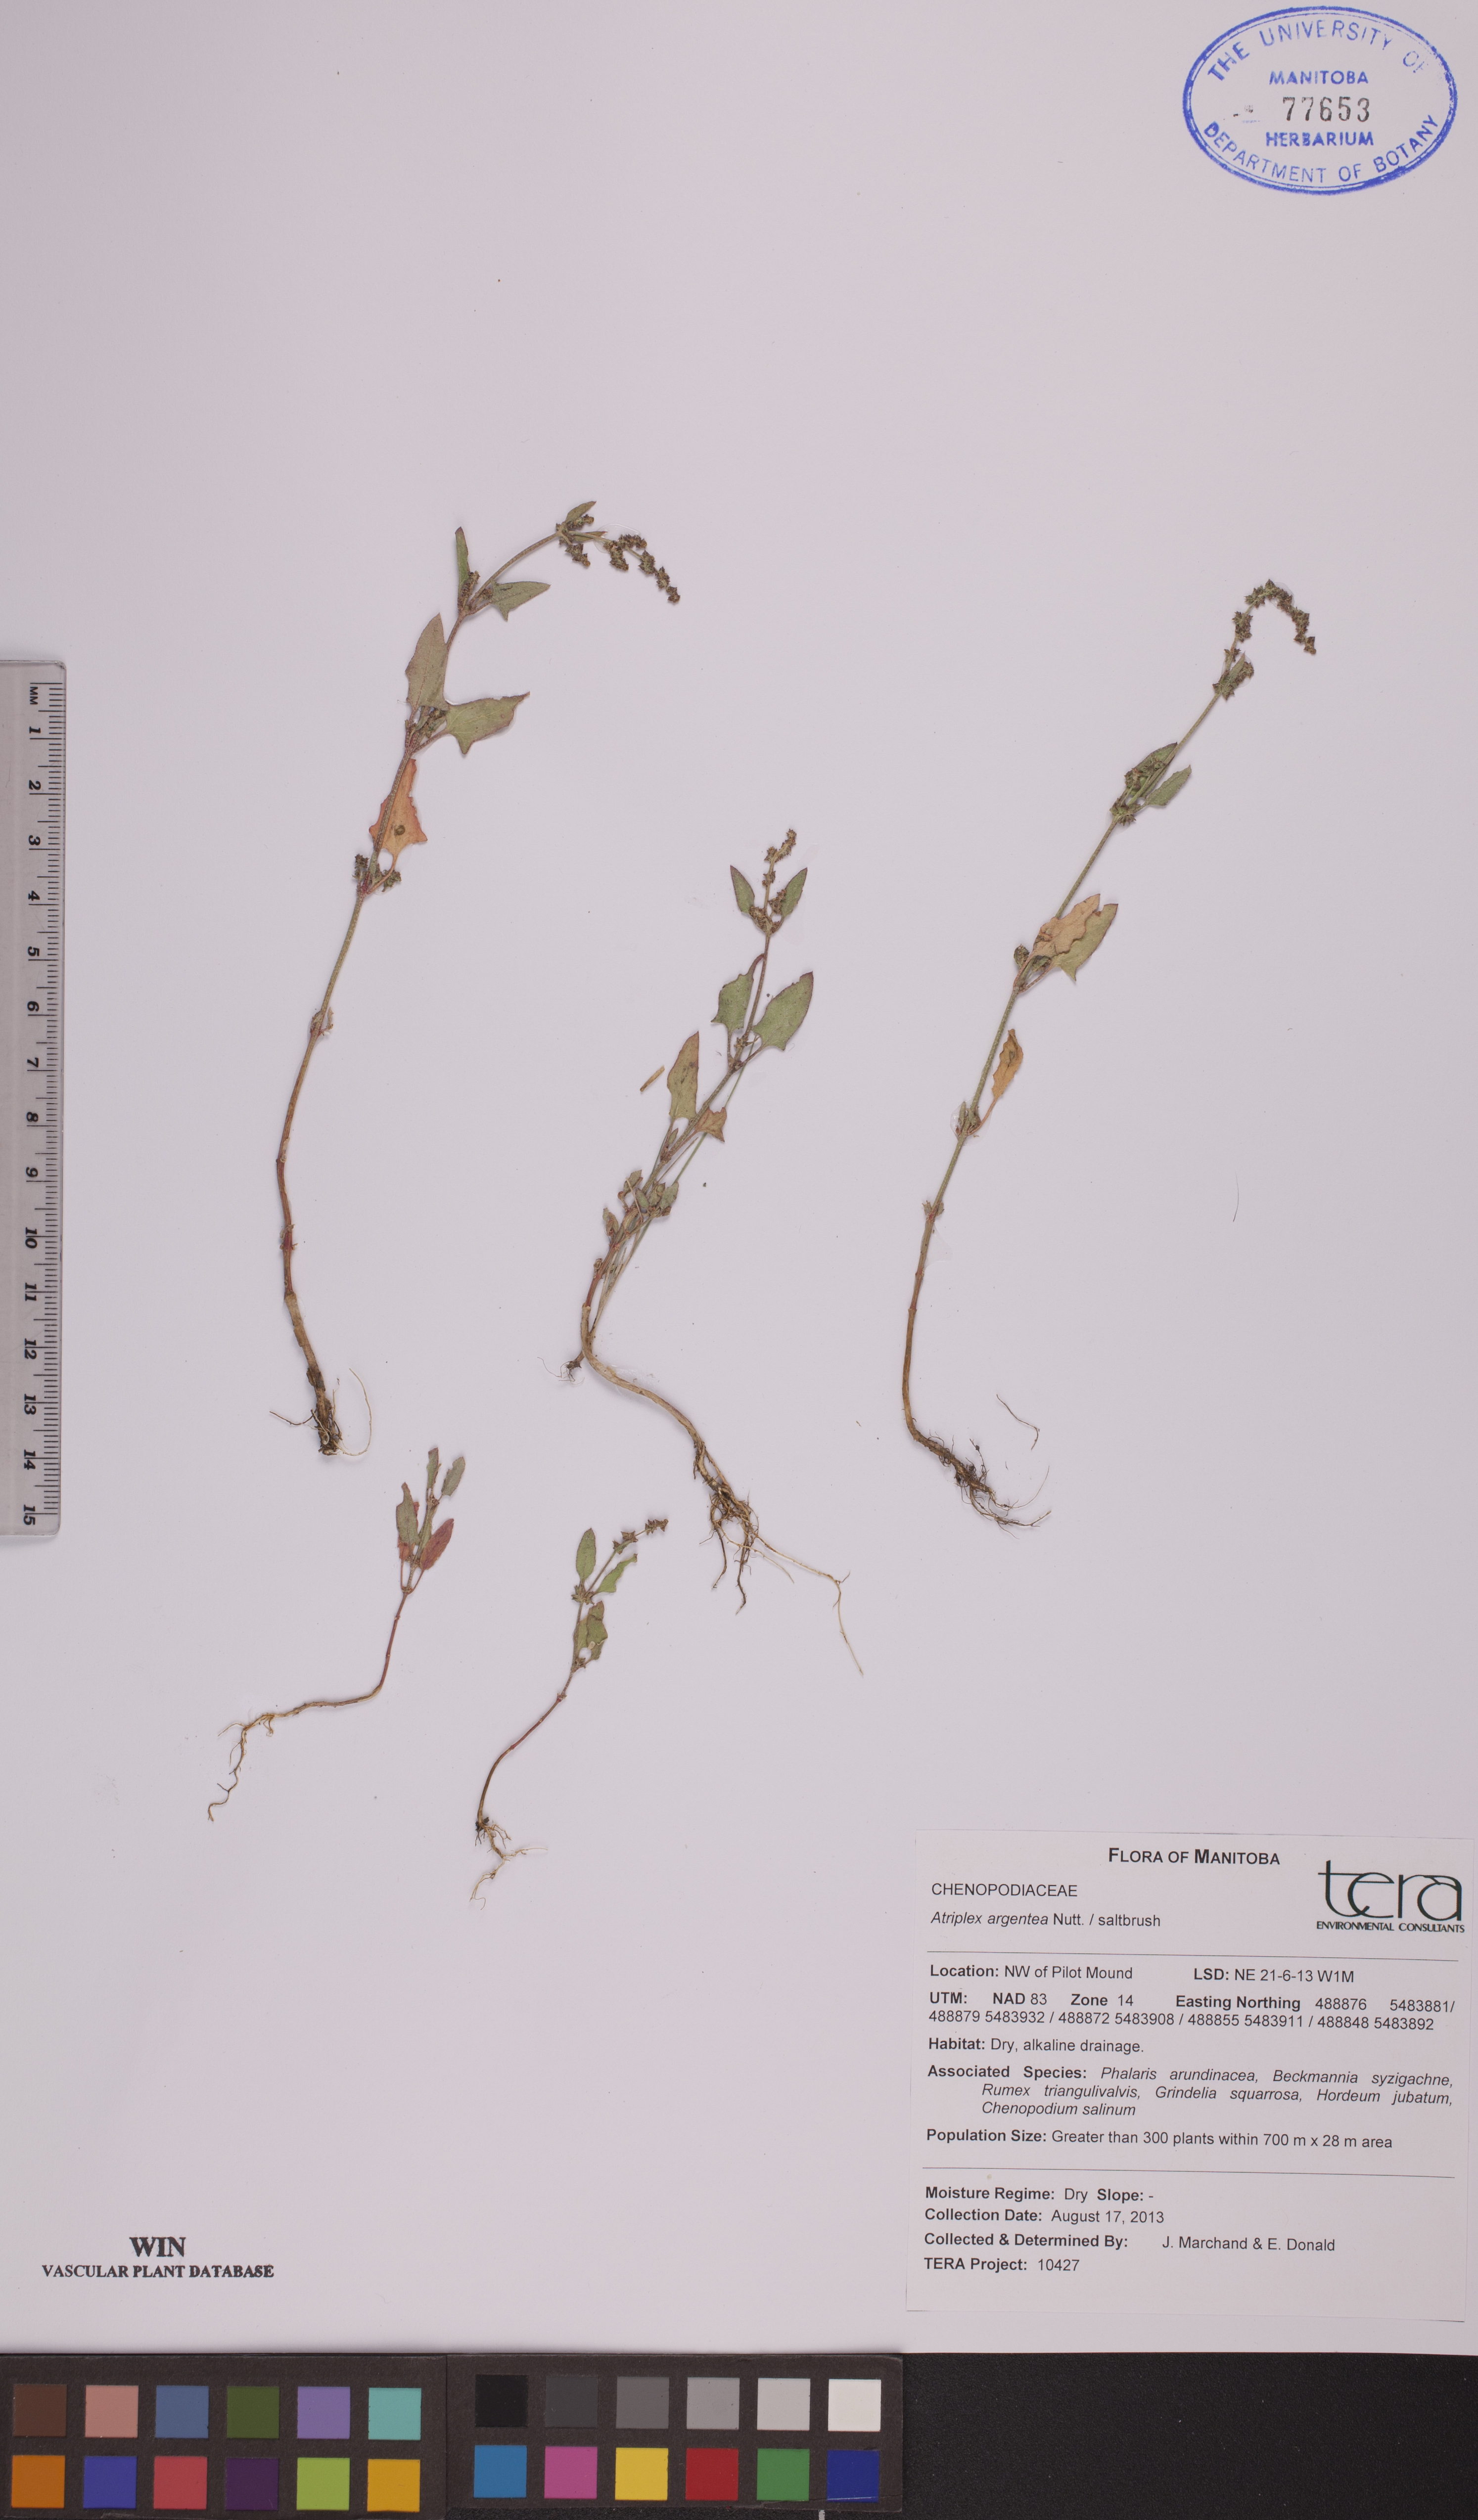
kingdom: Plantae
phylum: Tracheophyta
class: Magnoliopsida
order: Caryophyllales
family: Amaranthaceae
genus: Atriplex
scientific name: Atriplex argentea
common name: Silverscale
